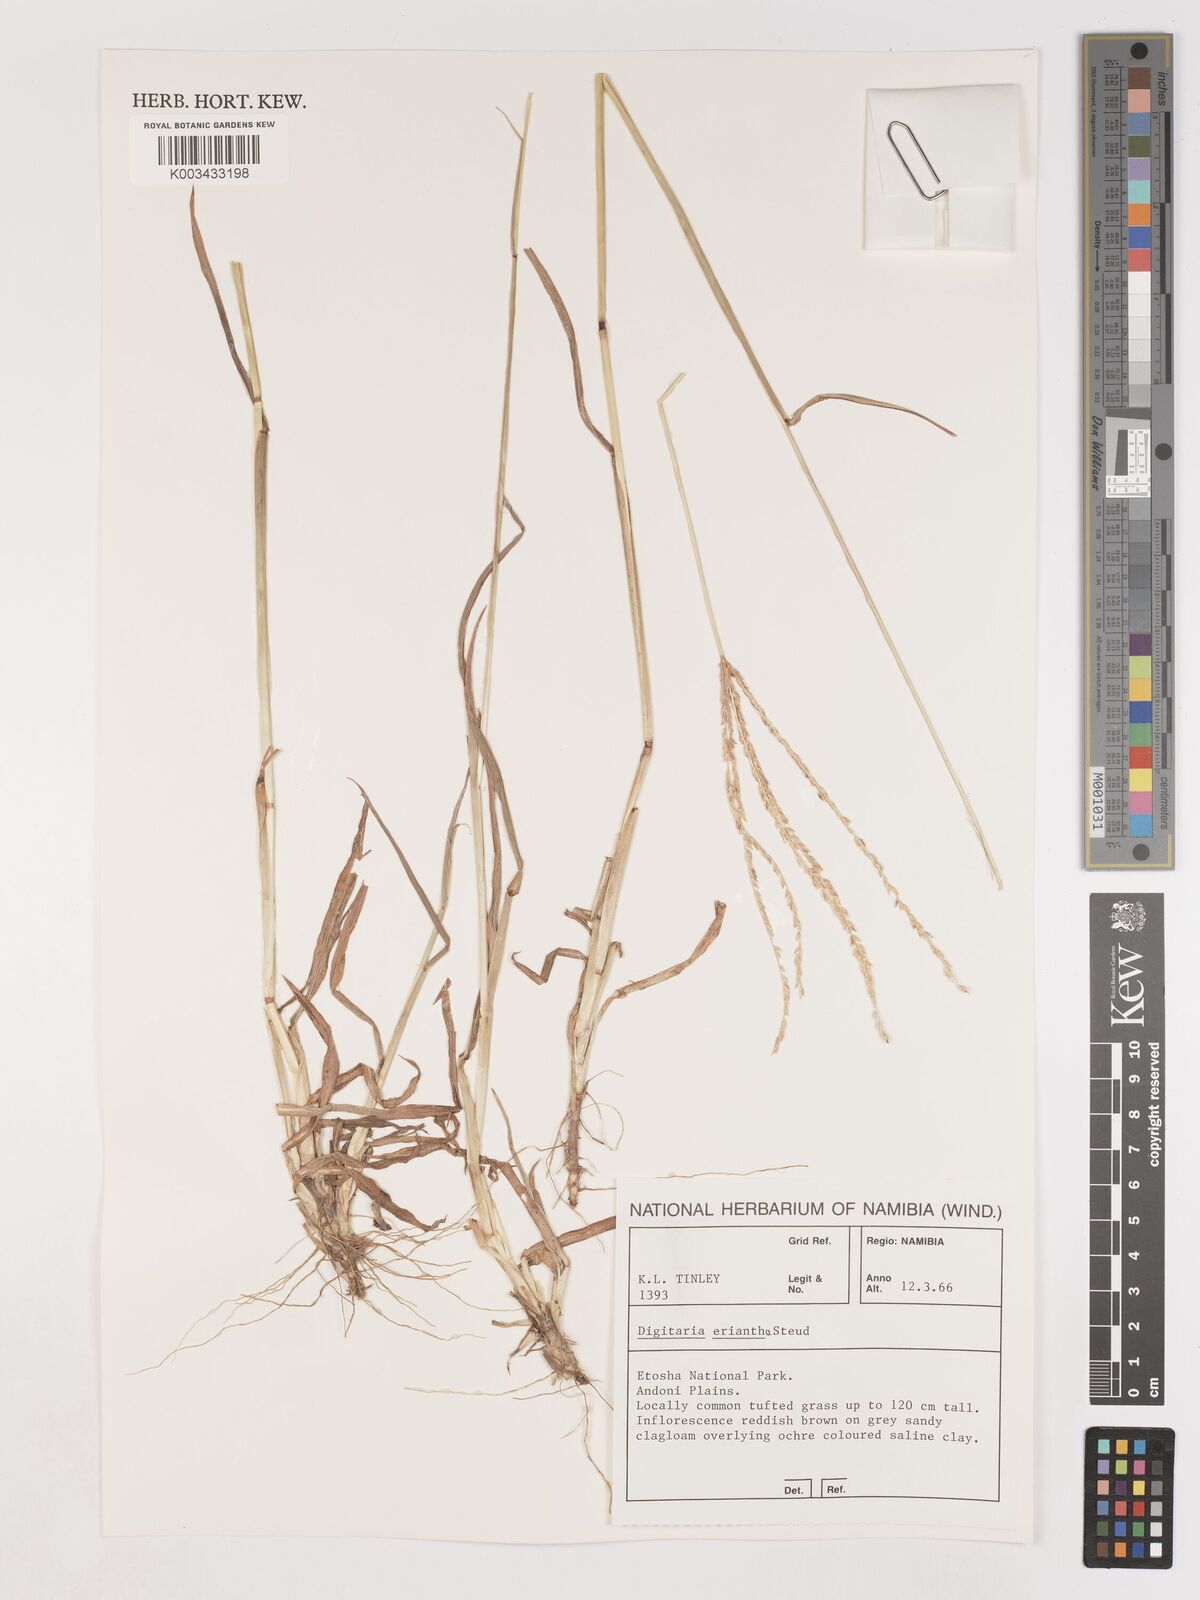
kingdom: Plantae
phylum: Tracheophyta
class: Liliopsida
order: Poales
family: Poaceae
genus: Digitaria
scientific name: Digitaria eriantha
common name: Digitgrass
